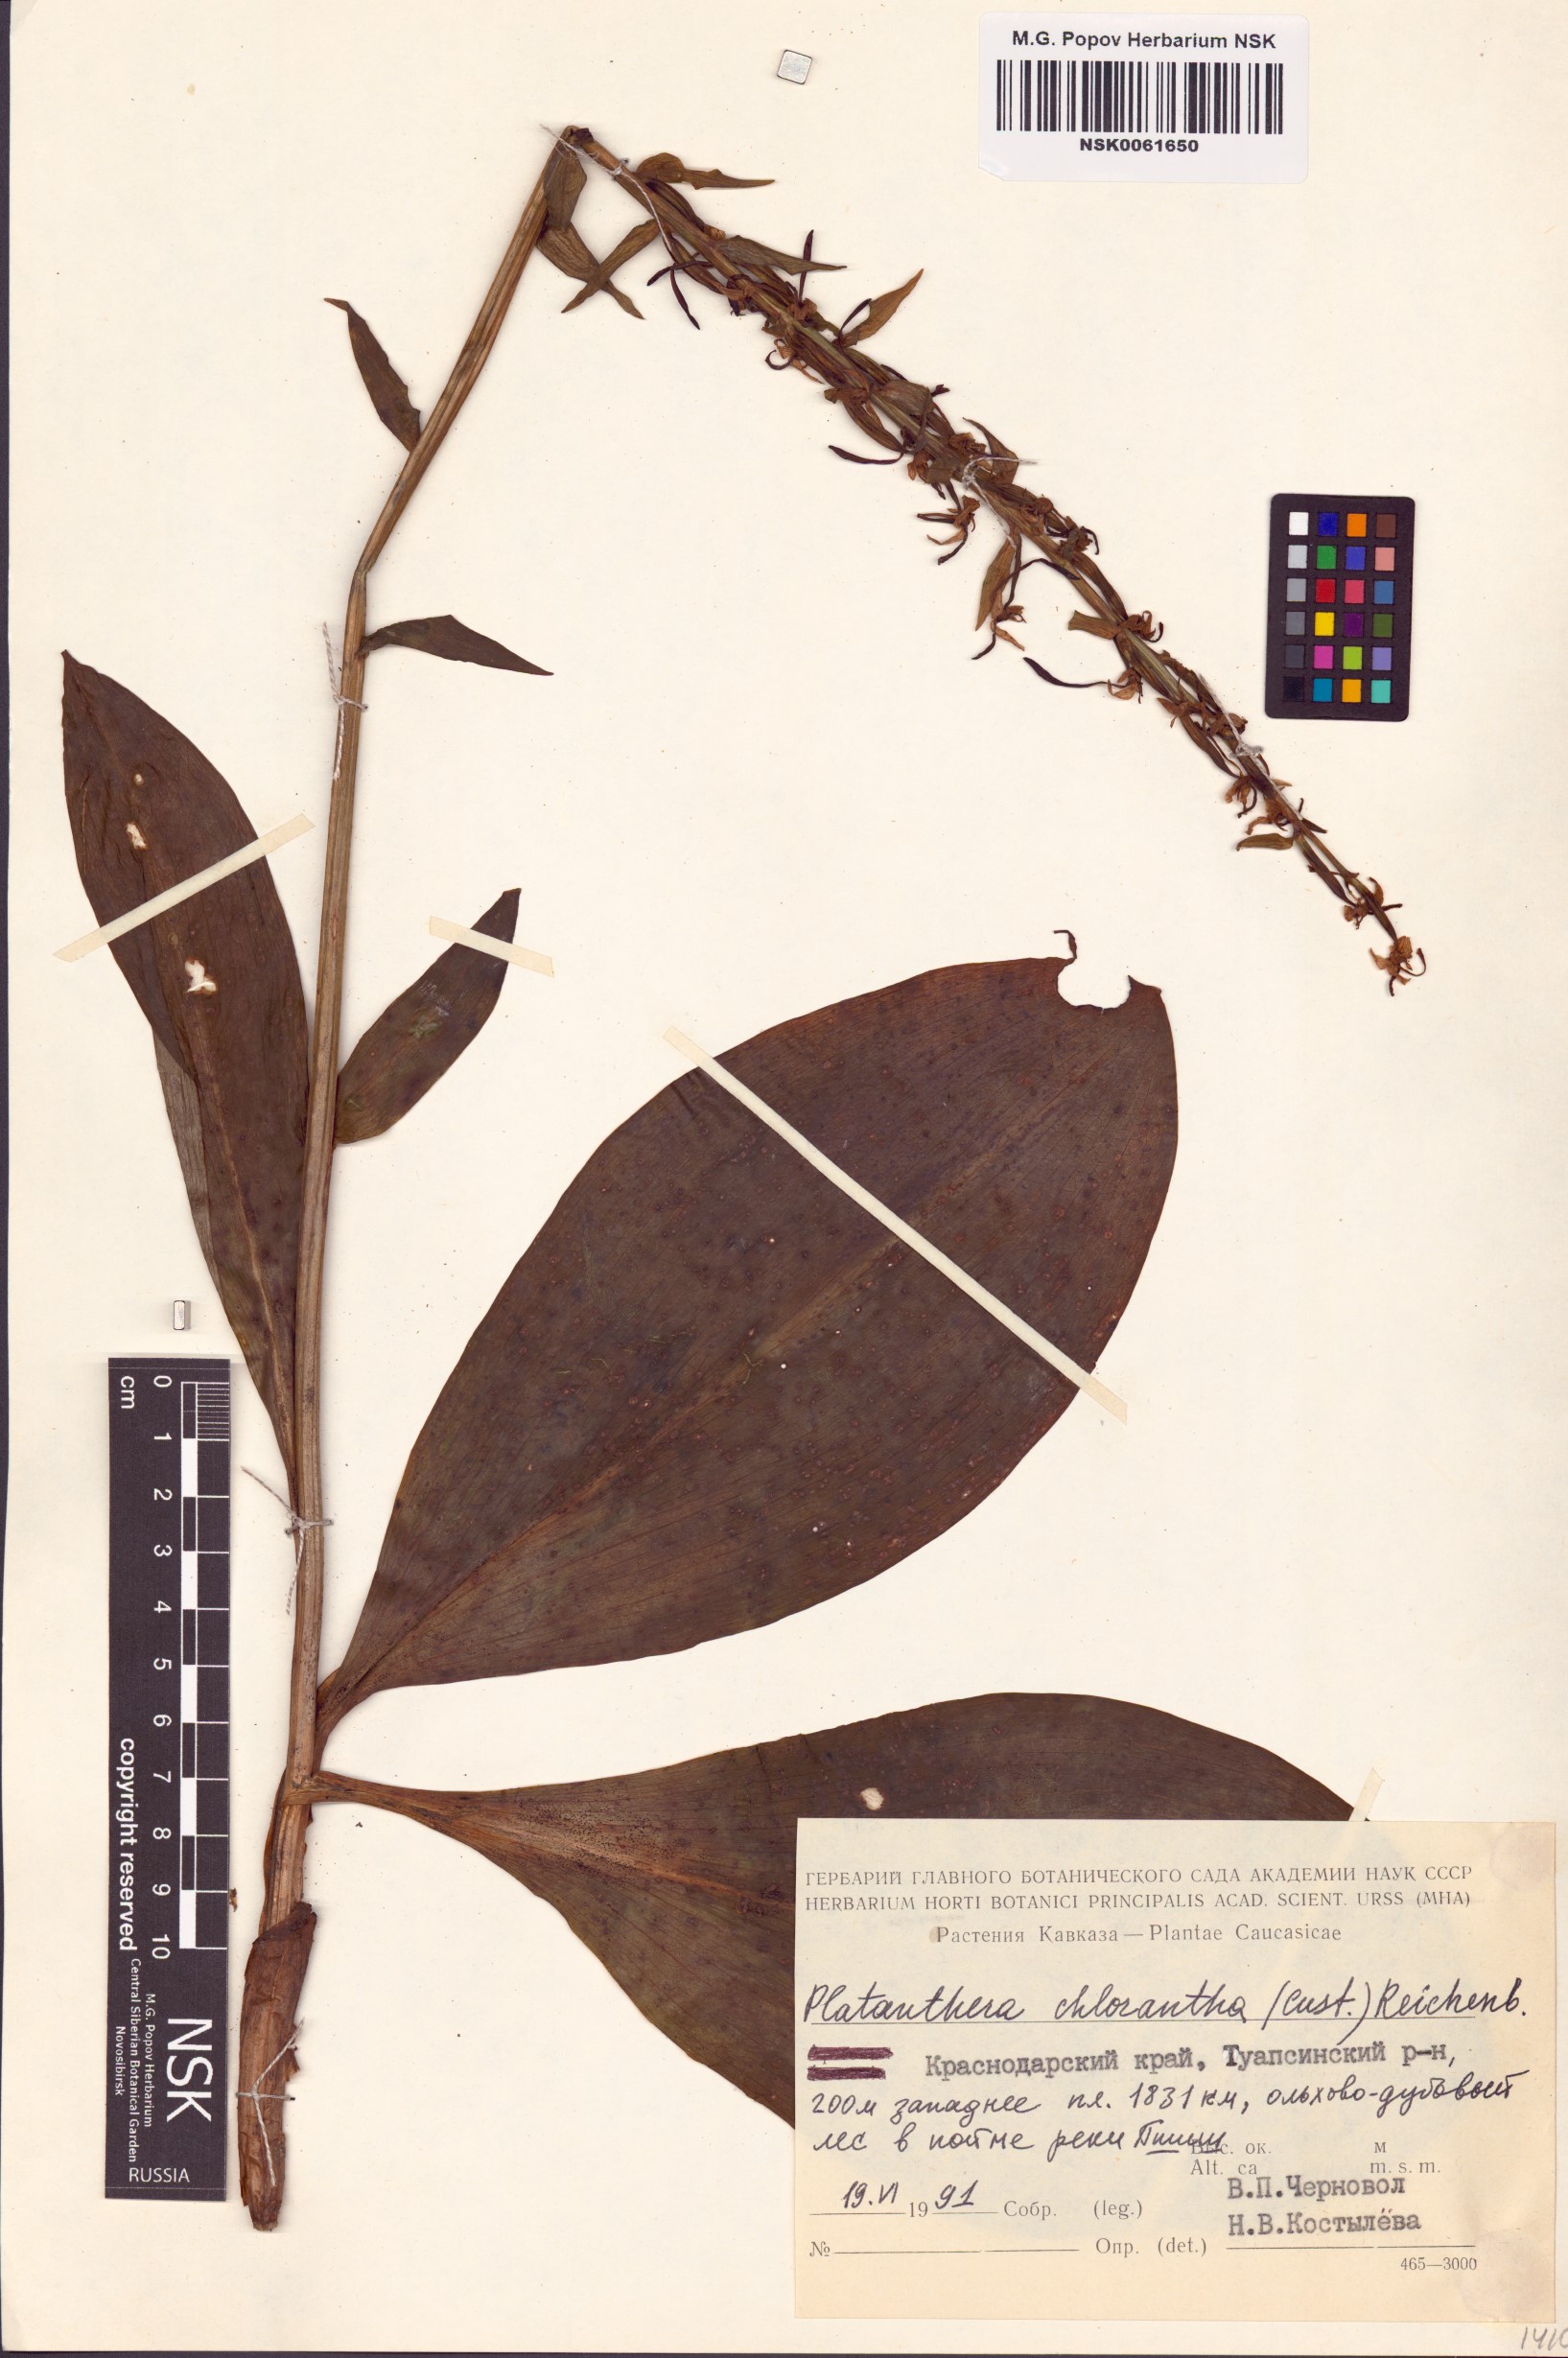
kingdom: Plantae
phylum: Tracheophyta
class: Liliopsida
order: Asparagales
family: Orchidaceae
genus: Platanthera
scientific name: Platanthera chlorantha
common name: Greater butterfly-orchid
